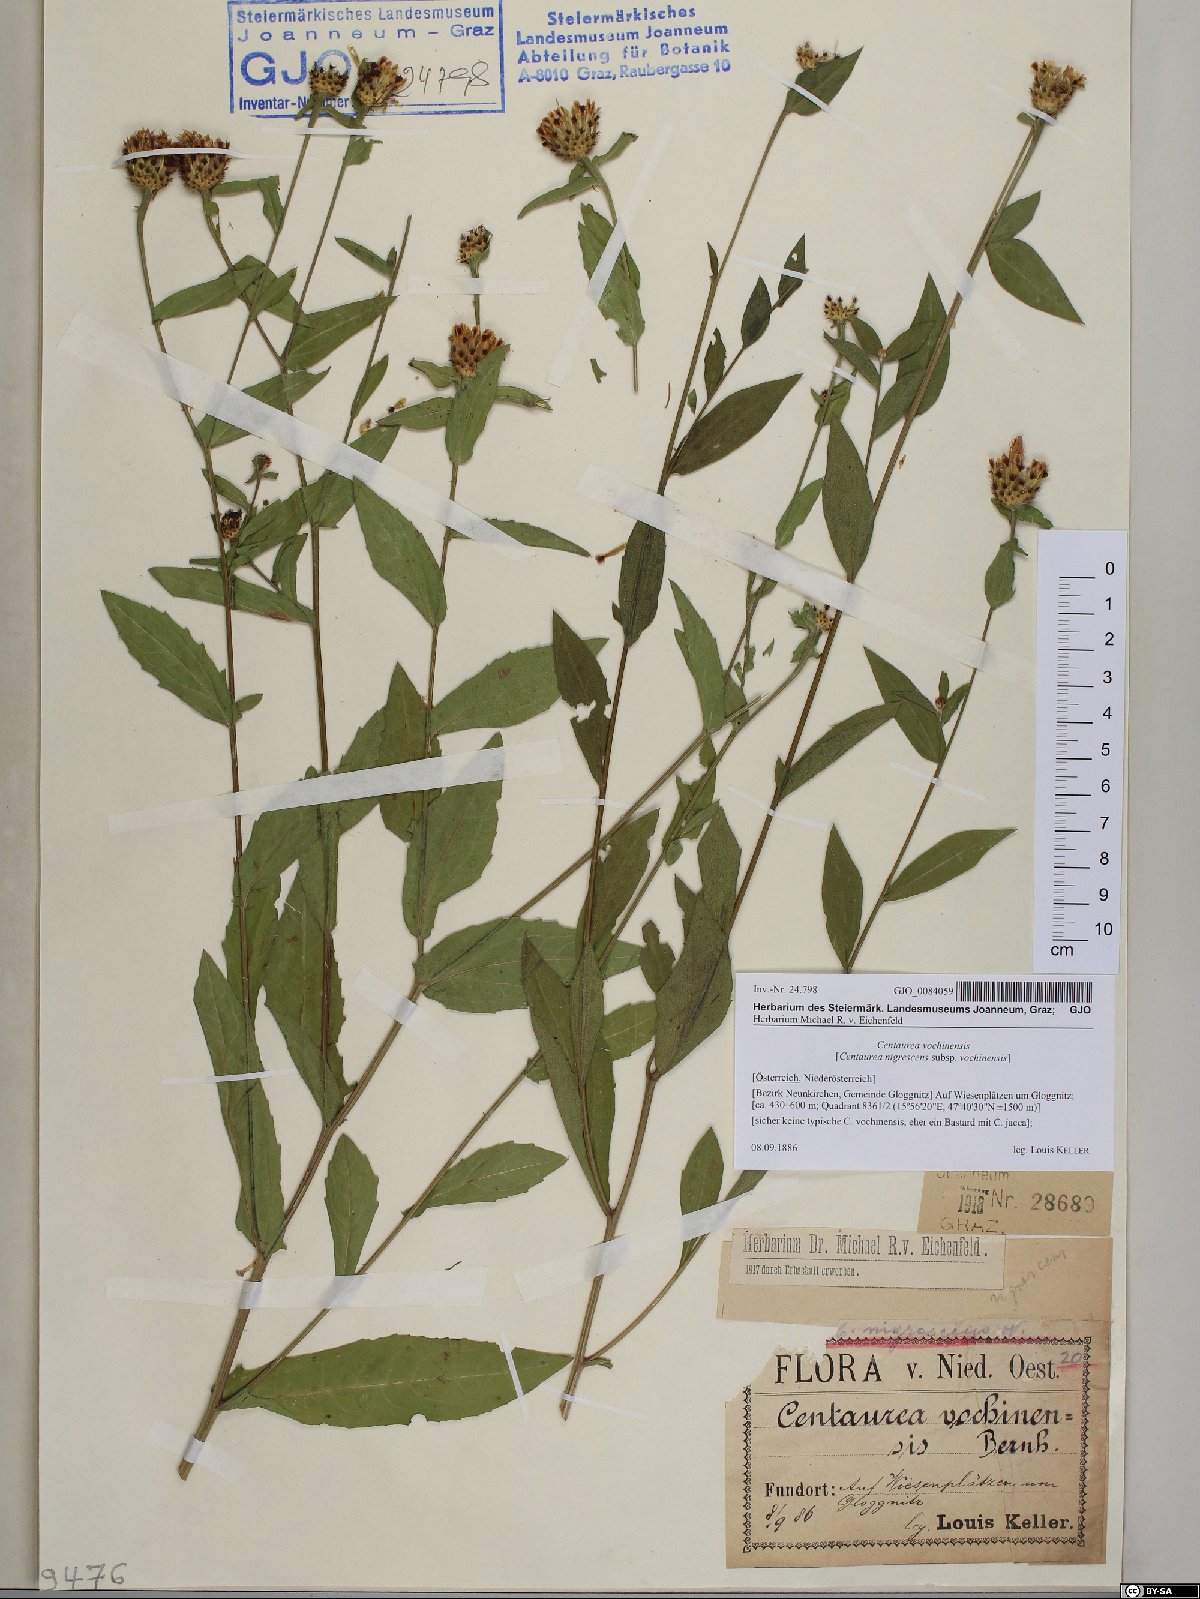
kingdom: Plantae
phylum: Tracheophyta
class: Magnoliopsida
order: Asterales
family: Asteraceae
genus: Centaurea
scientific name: Centaurea carniolica
